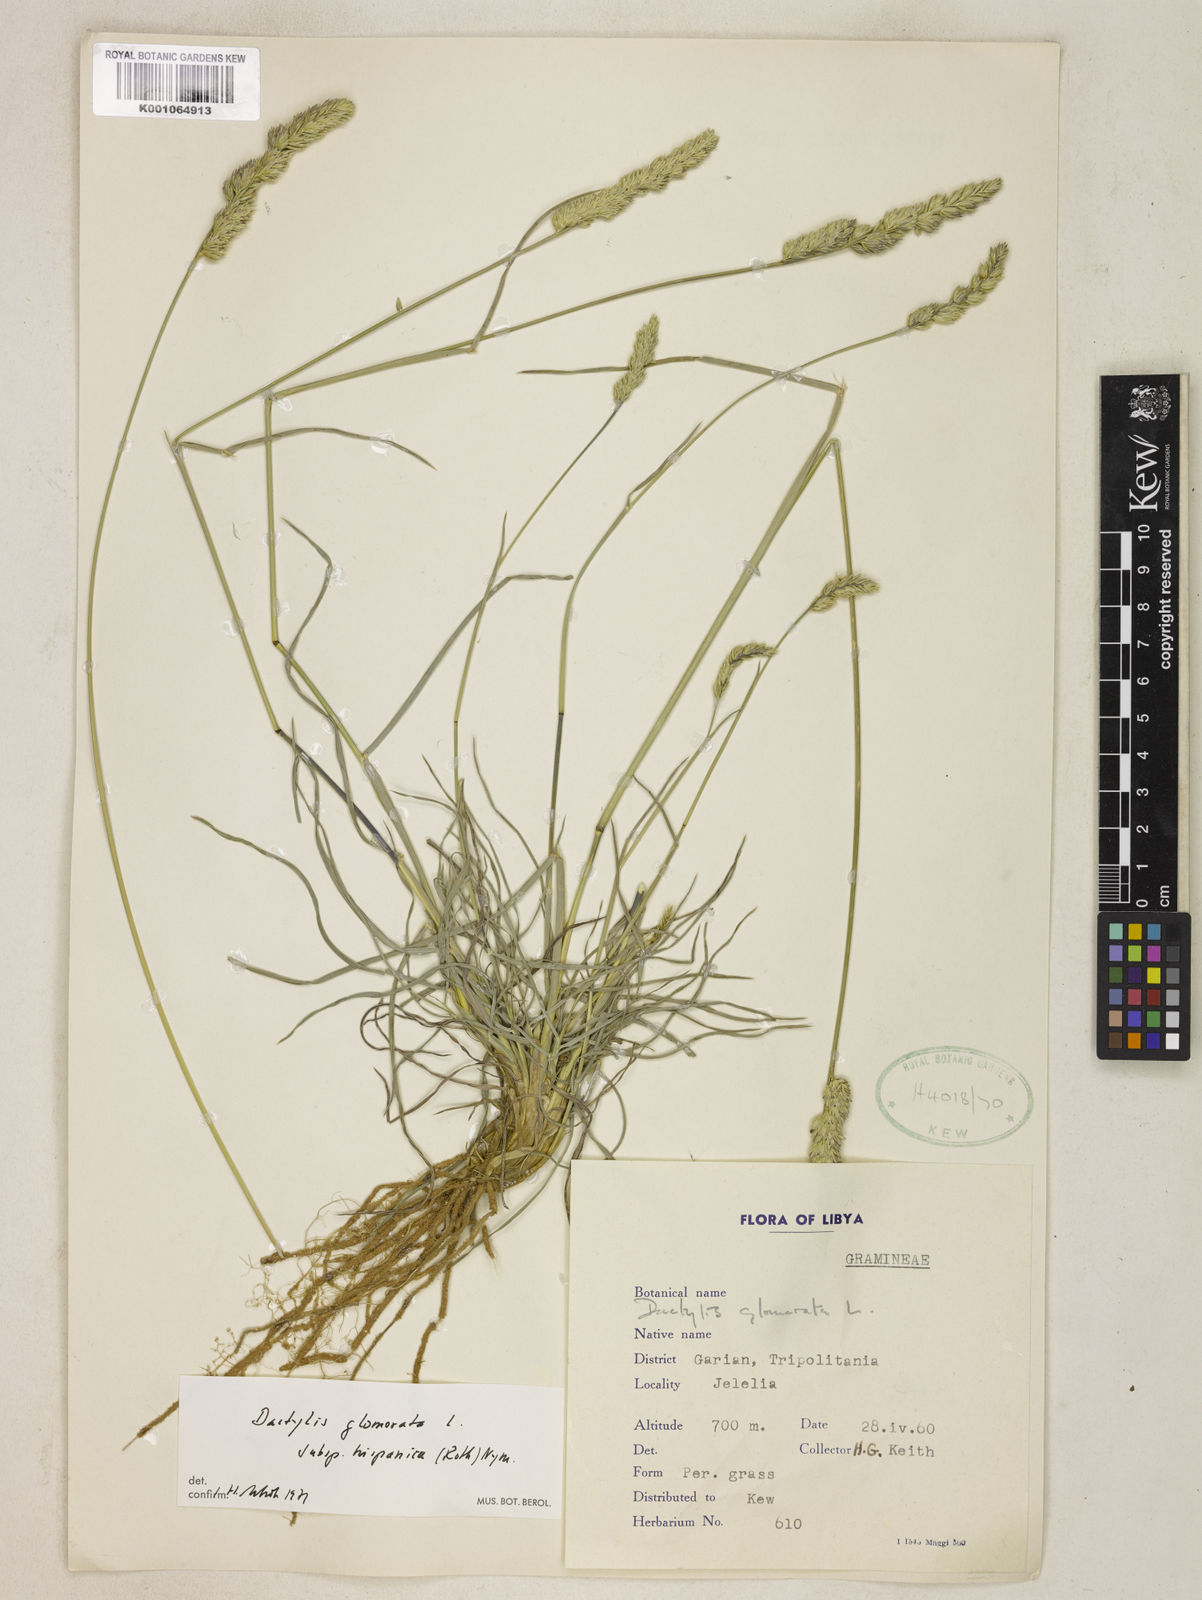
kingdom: Plantae
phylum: Tracheophyta
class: Liliopsida
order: Poales
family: Poaceae
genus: Dactylis
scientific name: Dactylis glomerata
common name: Orchardgrass
